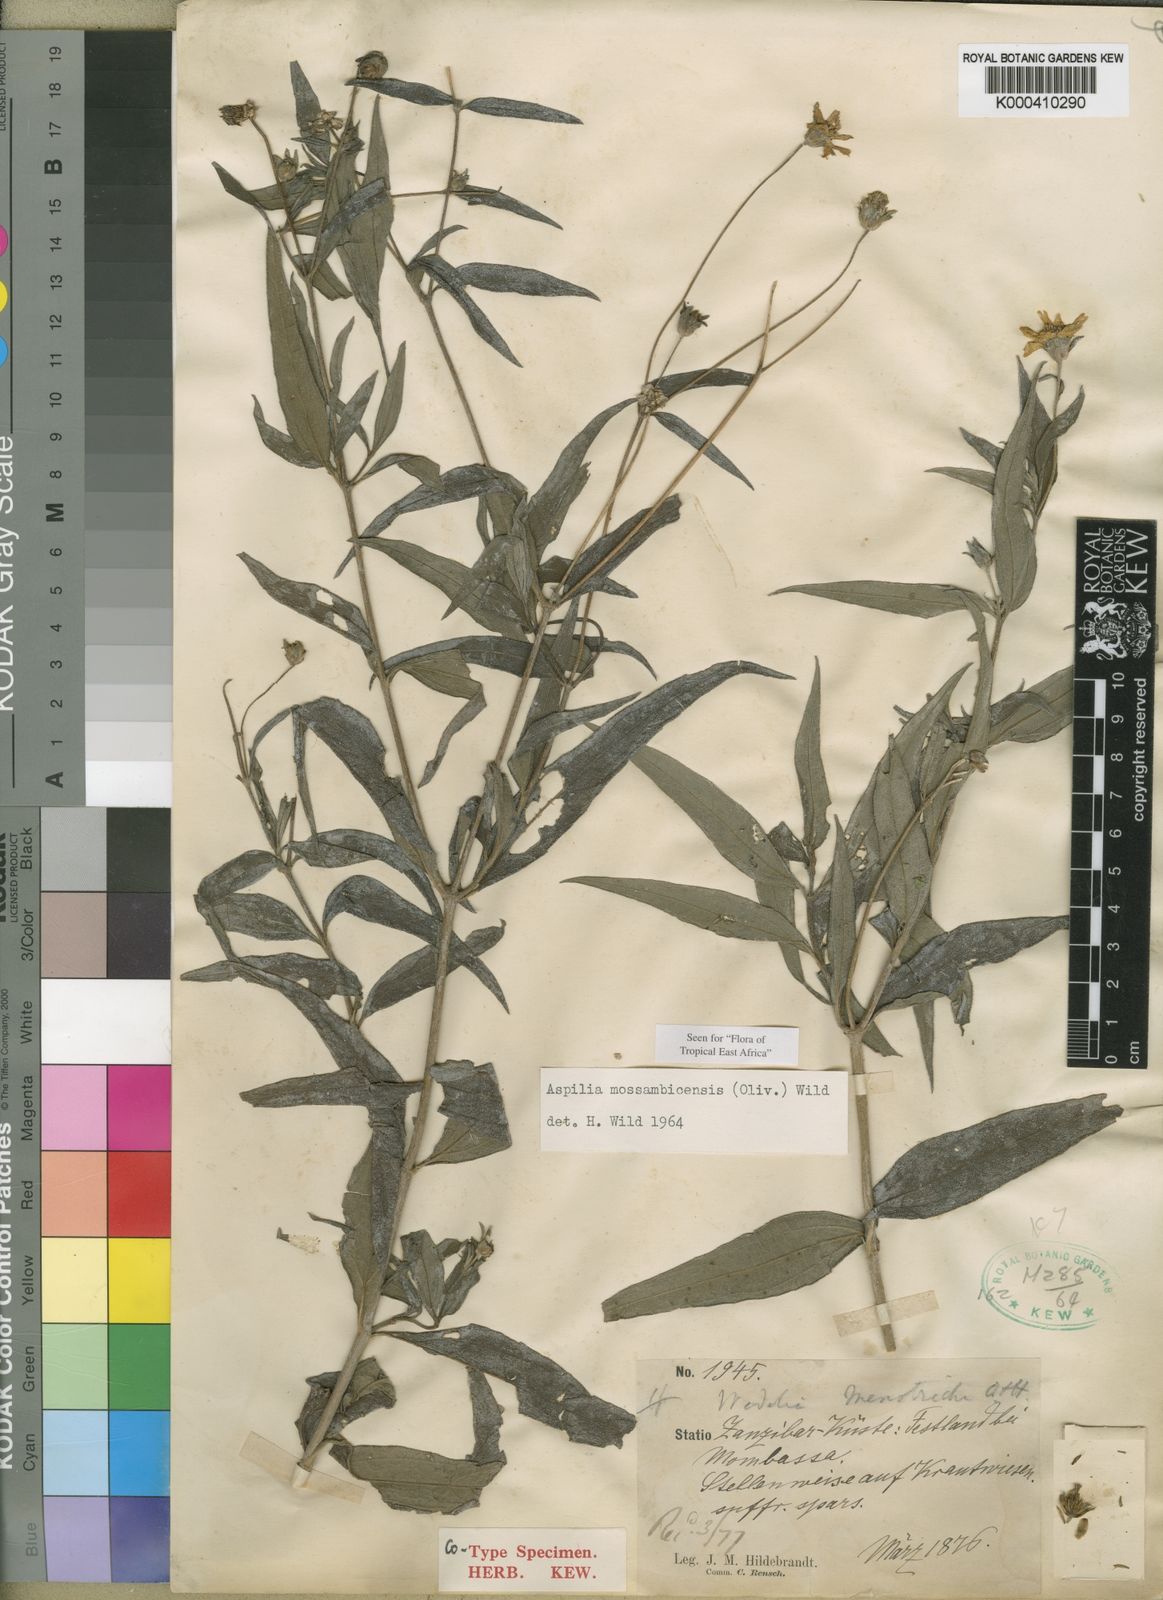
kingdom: Plantae
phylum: Tracheophyta
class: Magnoliopsida
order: Asterales
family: Asteraceae
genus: Aspilia
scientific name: Aspilia mossambicensis
